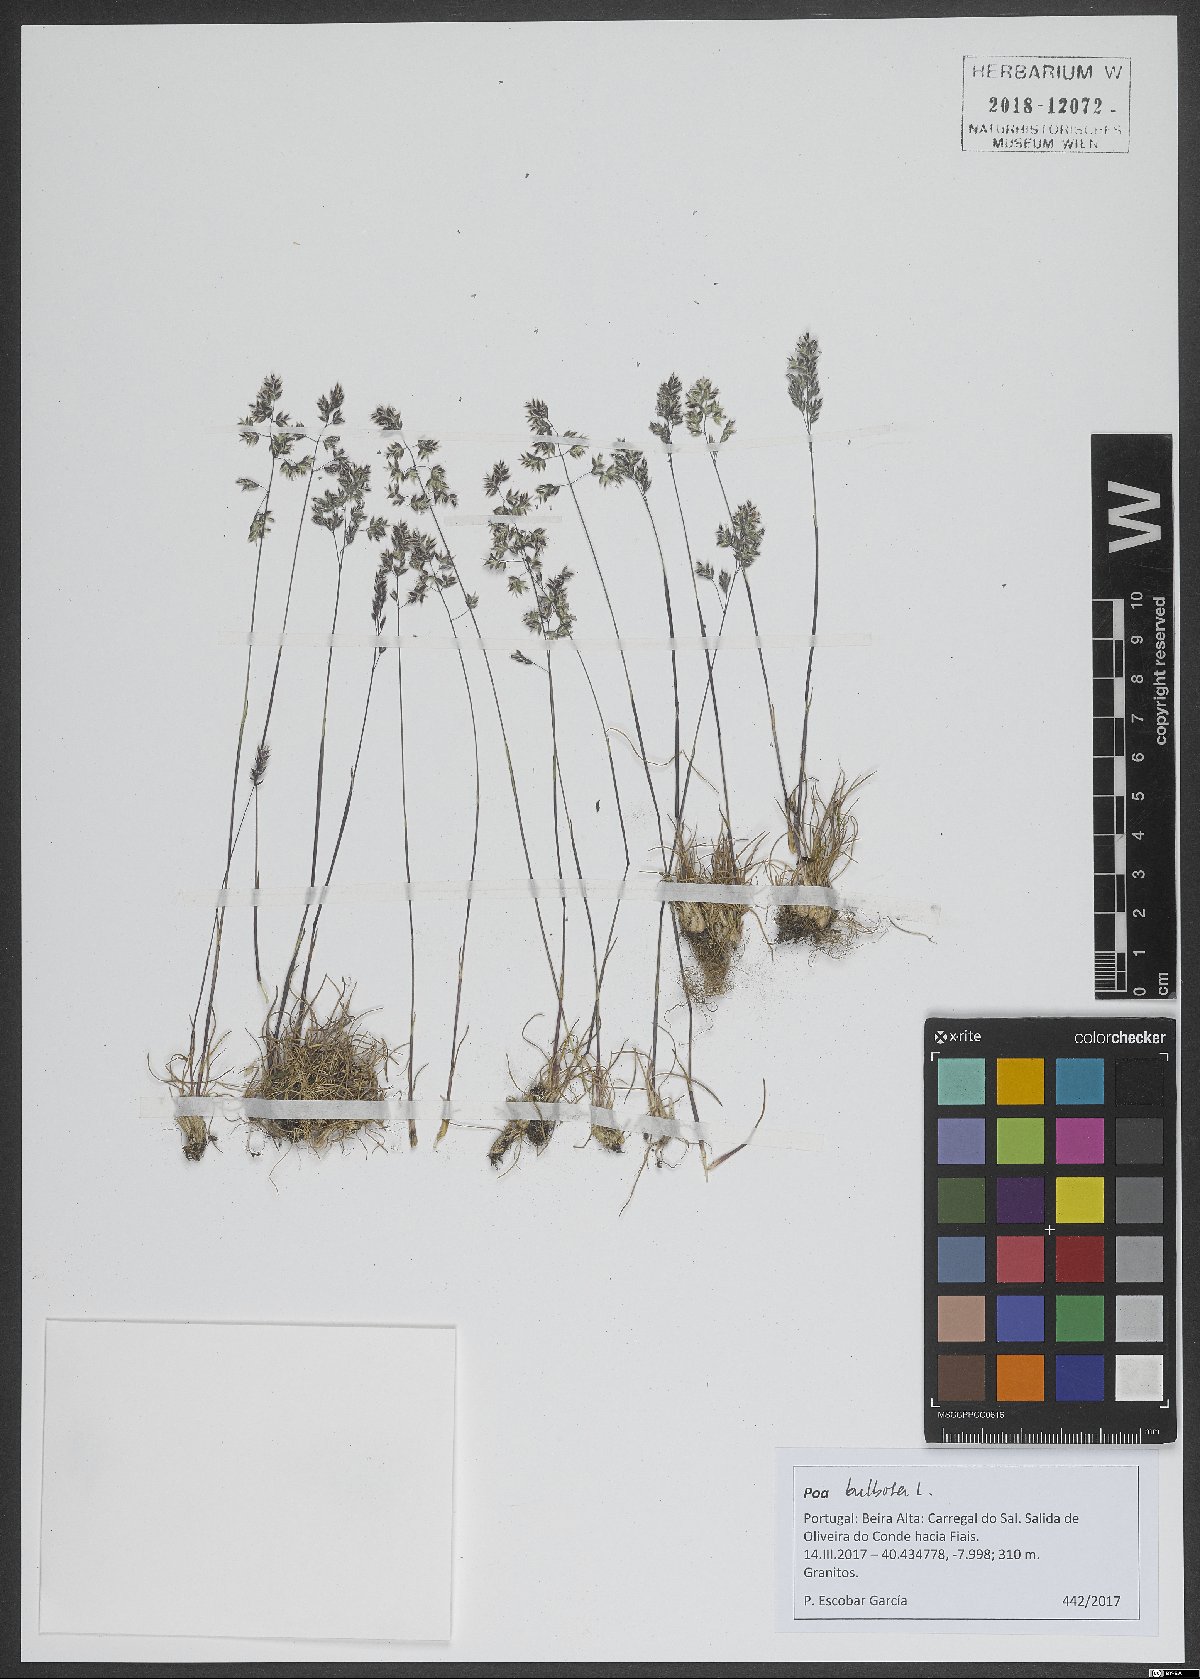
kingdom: Plantae
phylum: Tracheophyta
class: Liliopsida
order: Poales
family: Poaceae
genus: Poa
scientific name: Poa bulbosa
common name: Bulbous bluegrass
